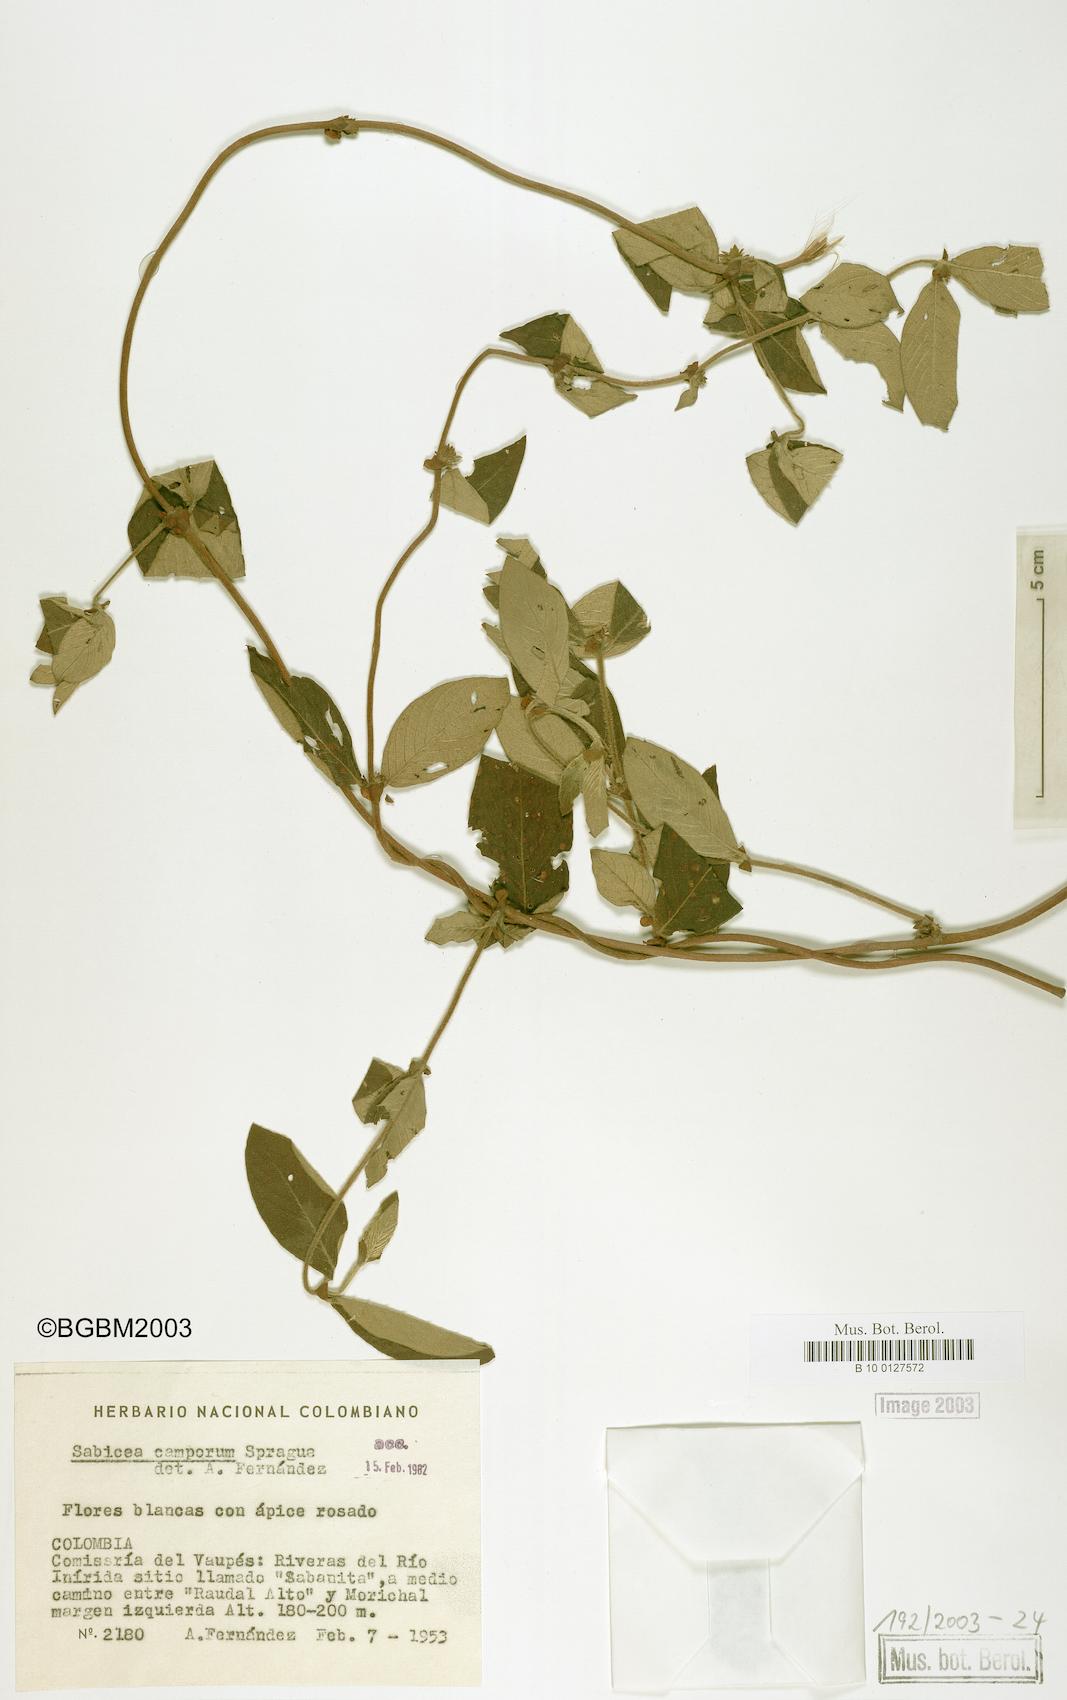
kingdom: Plantae
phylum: Tracheophyta
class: Magnoliopsida
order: Gentianales
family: Rubiaceae
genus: Sabicea
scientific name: Sabicea camporum
